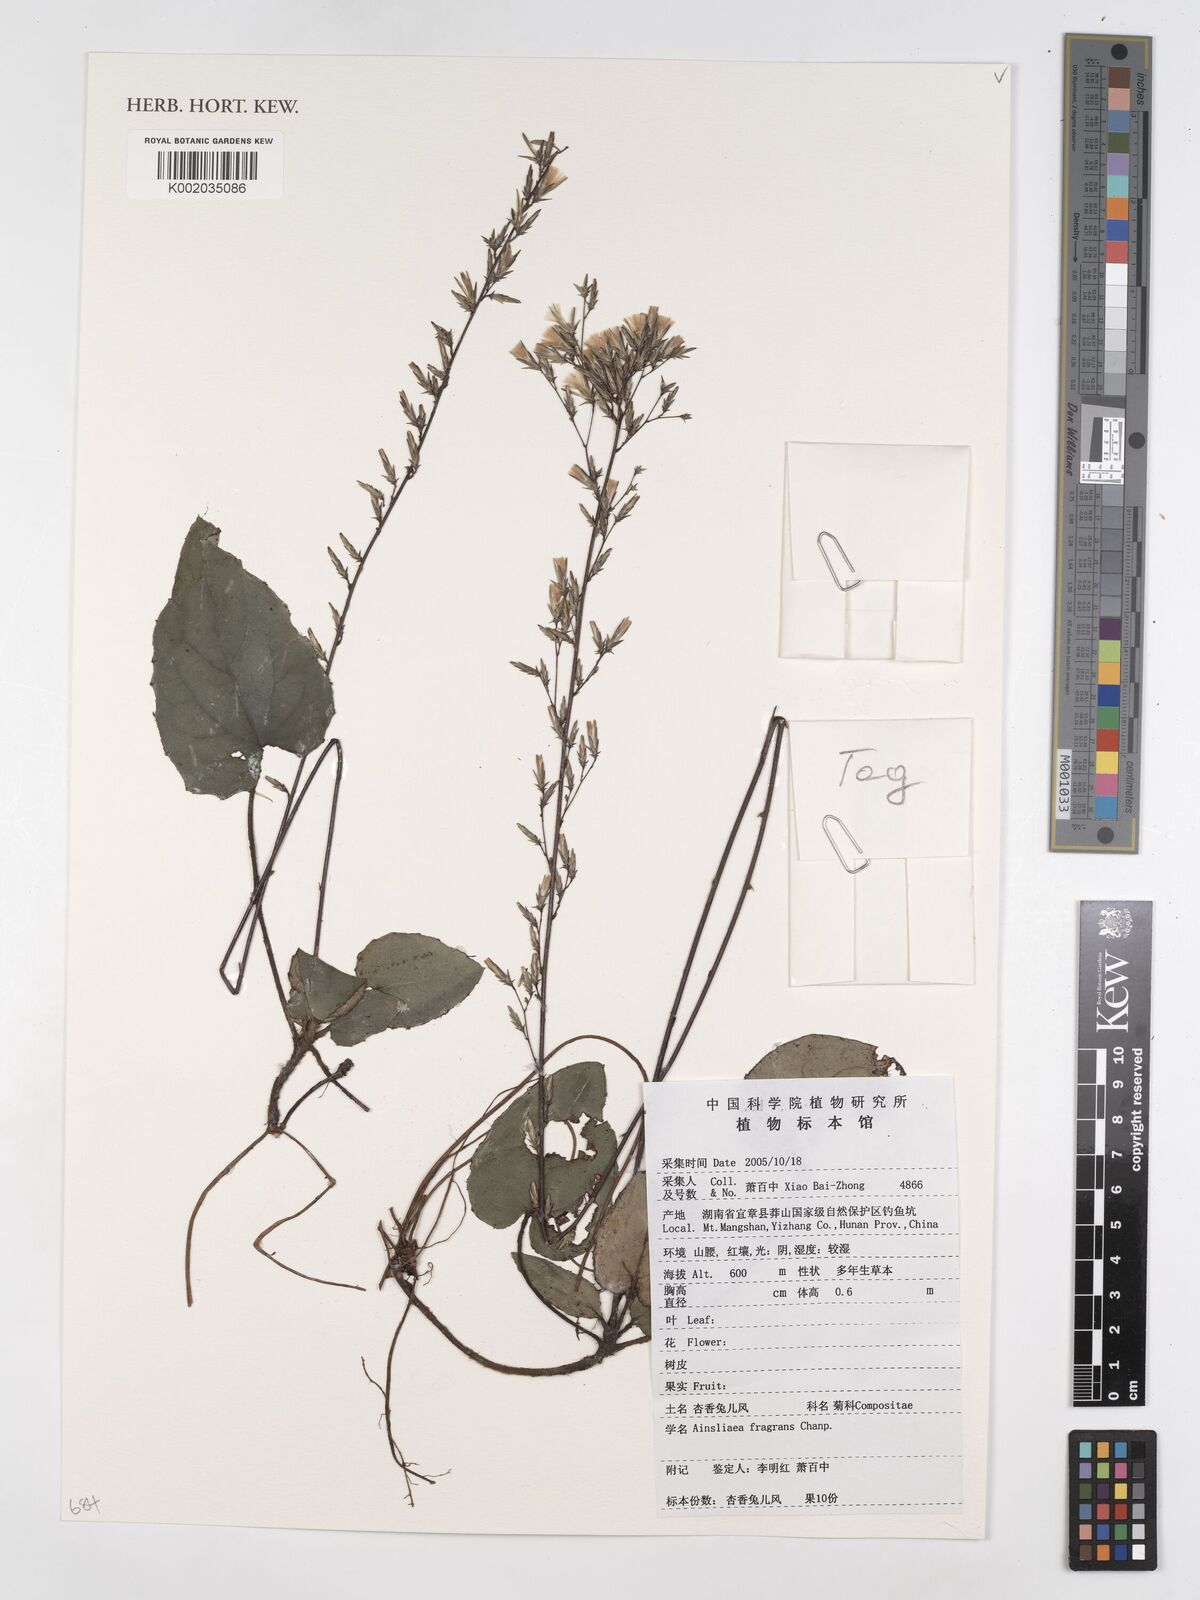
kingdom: Plantae
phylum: Tracheophyta
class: Magnoliopsida
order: Asterales
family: Asteraceae
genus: Ainsliaea
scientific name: Ainsliaea fragrans
